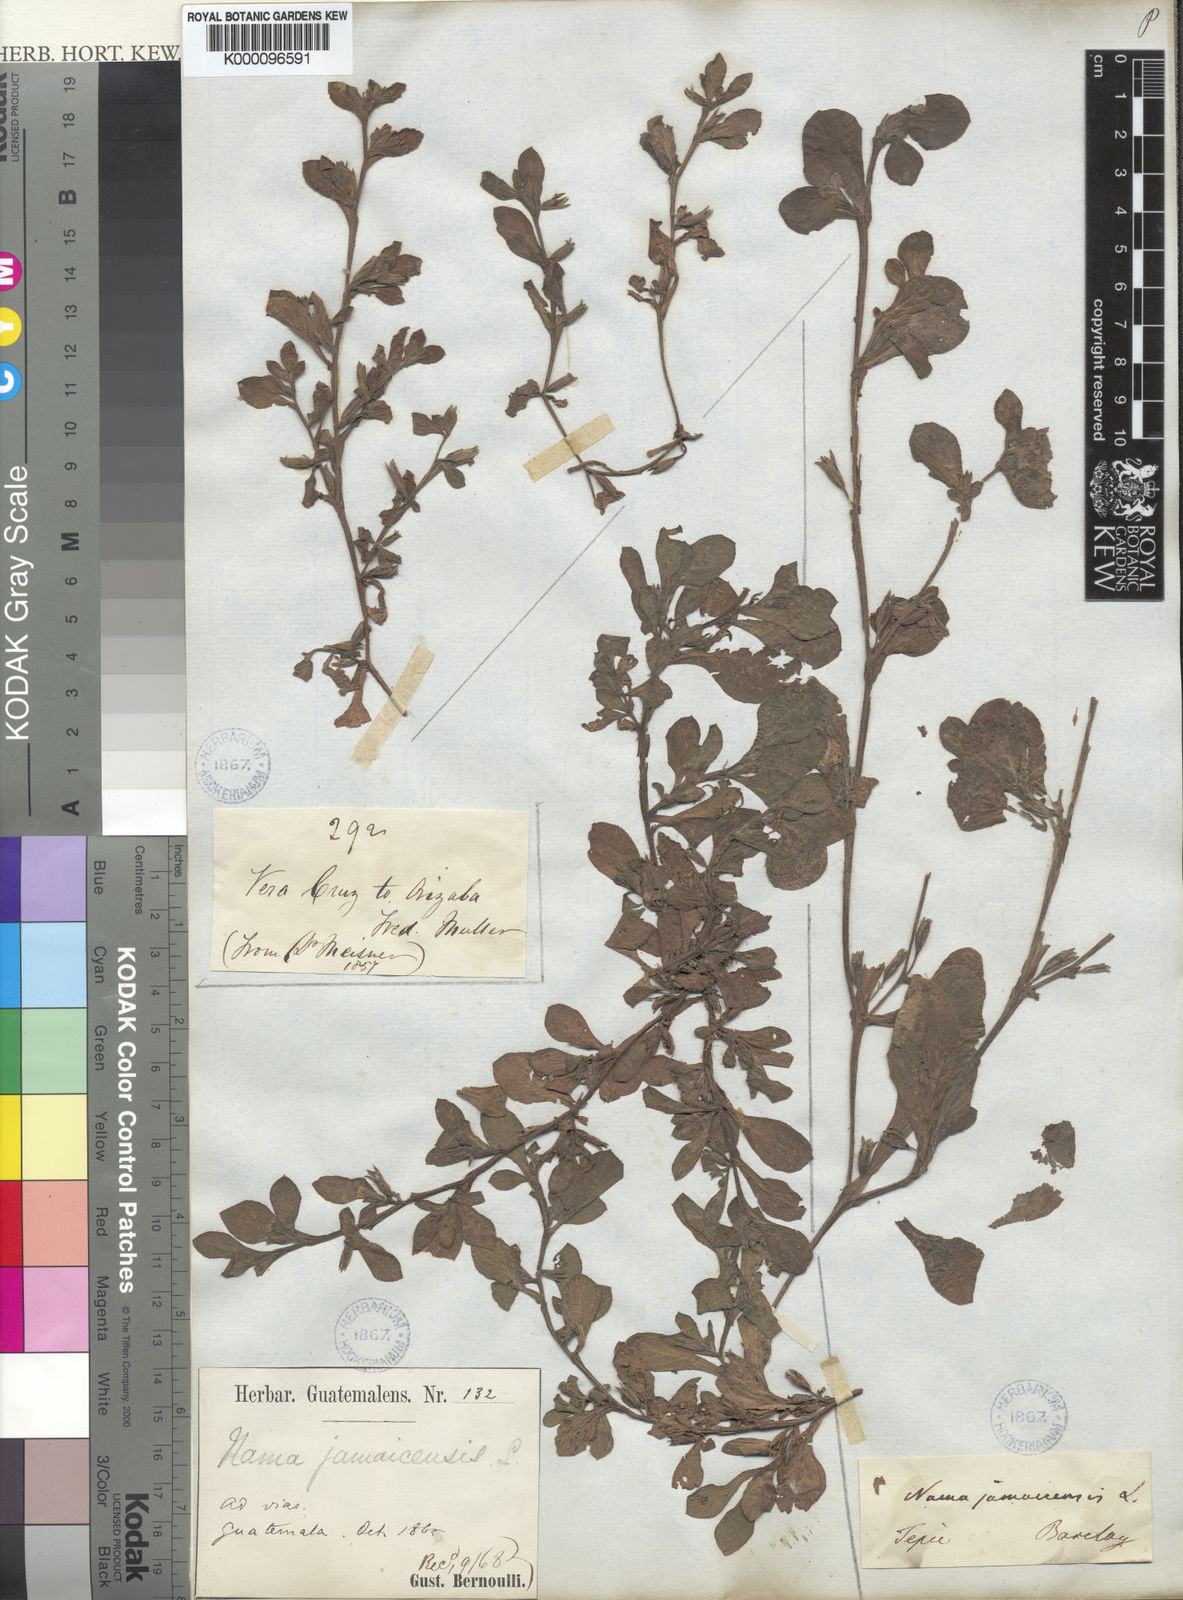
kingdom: Plantae
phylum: Tracheophyta
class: Magnoliopsida
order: Boraginales
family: Namaceae
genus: Nama
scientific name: Nama jamaicensis
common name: Jamaicanweed
